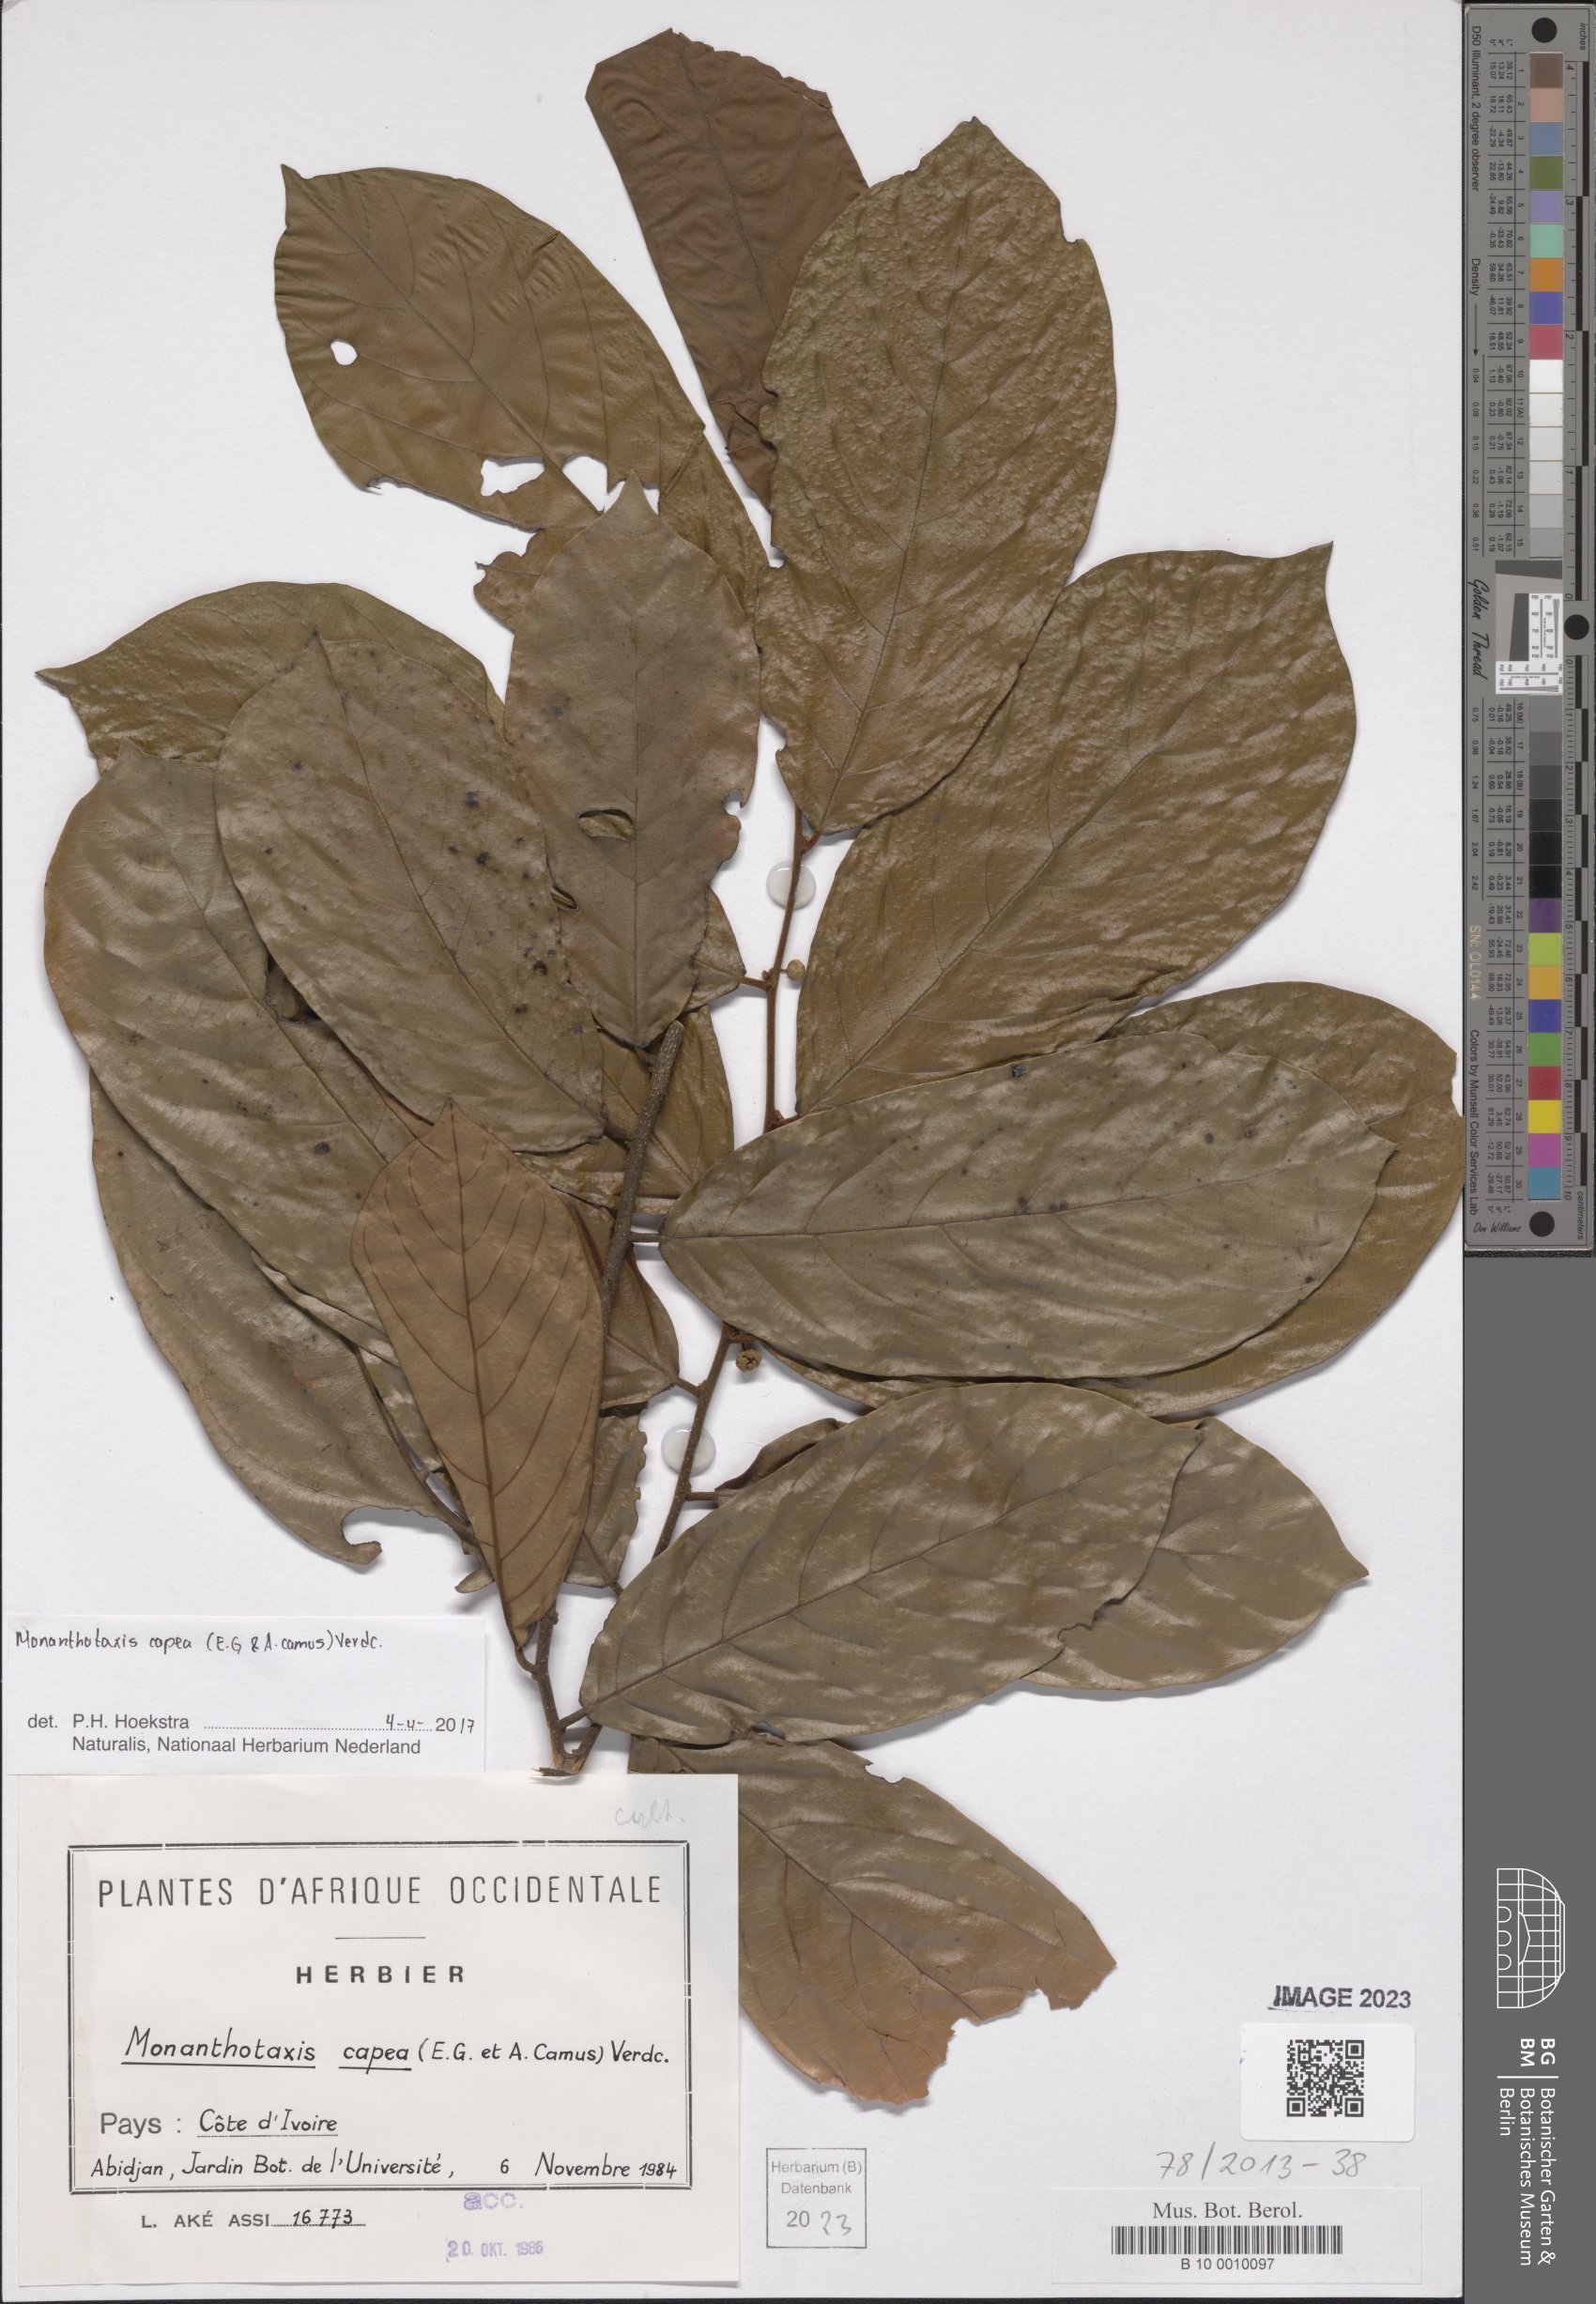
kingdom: Plantae
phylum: Tracheophyta
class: Magnoliopsida
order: Magnoliales
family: Annonaceae
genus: Monanthotaxis
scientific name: Monanthotaxis capea
